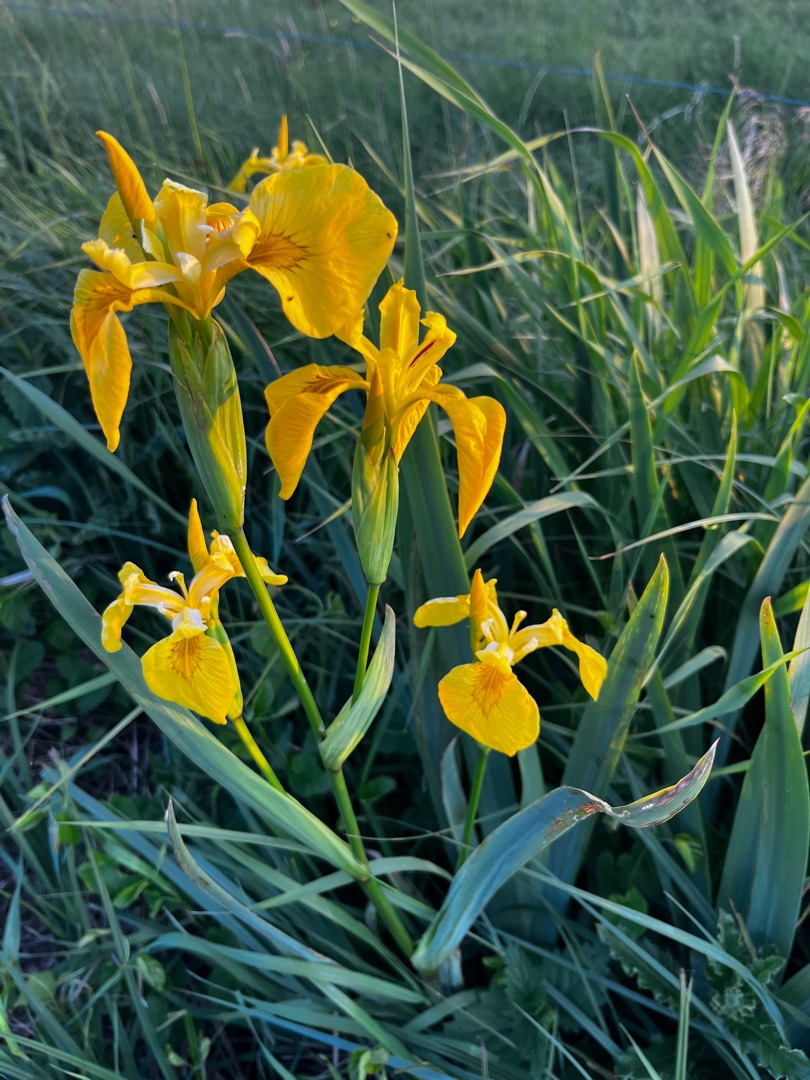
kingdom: Plantae
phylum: Tracheophyta
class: Liliopsida
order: Asparagales
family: Iridaceae
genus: Iris
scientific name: Iris pseudacorus
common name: Gul iris
